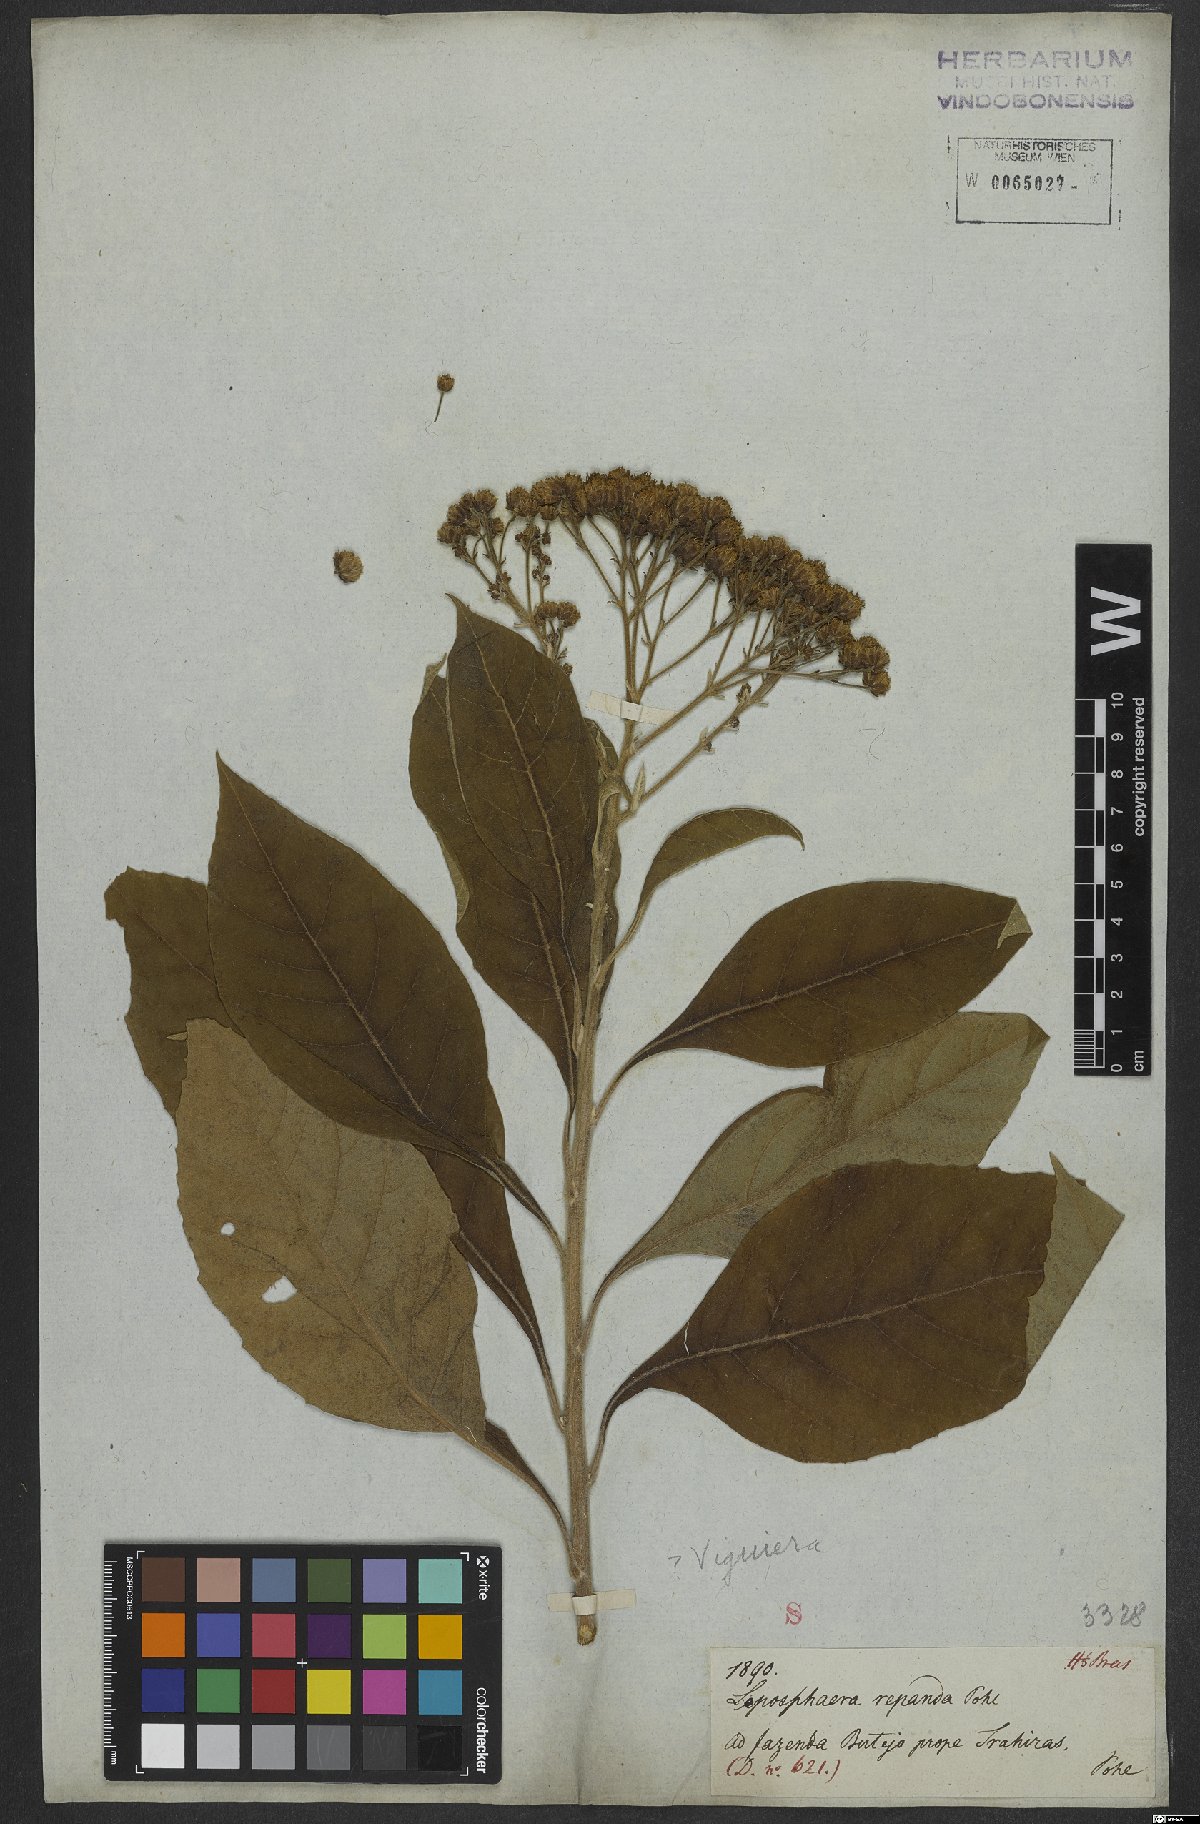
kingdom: Plantae
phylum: Tracheophyta
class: Magnoliopsida
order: Asterales
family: Asteraceae
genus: Viguiera
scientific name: Viguiera
